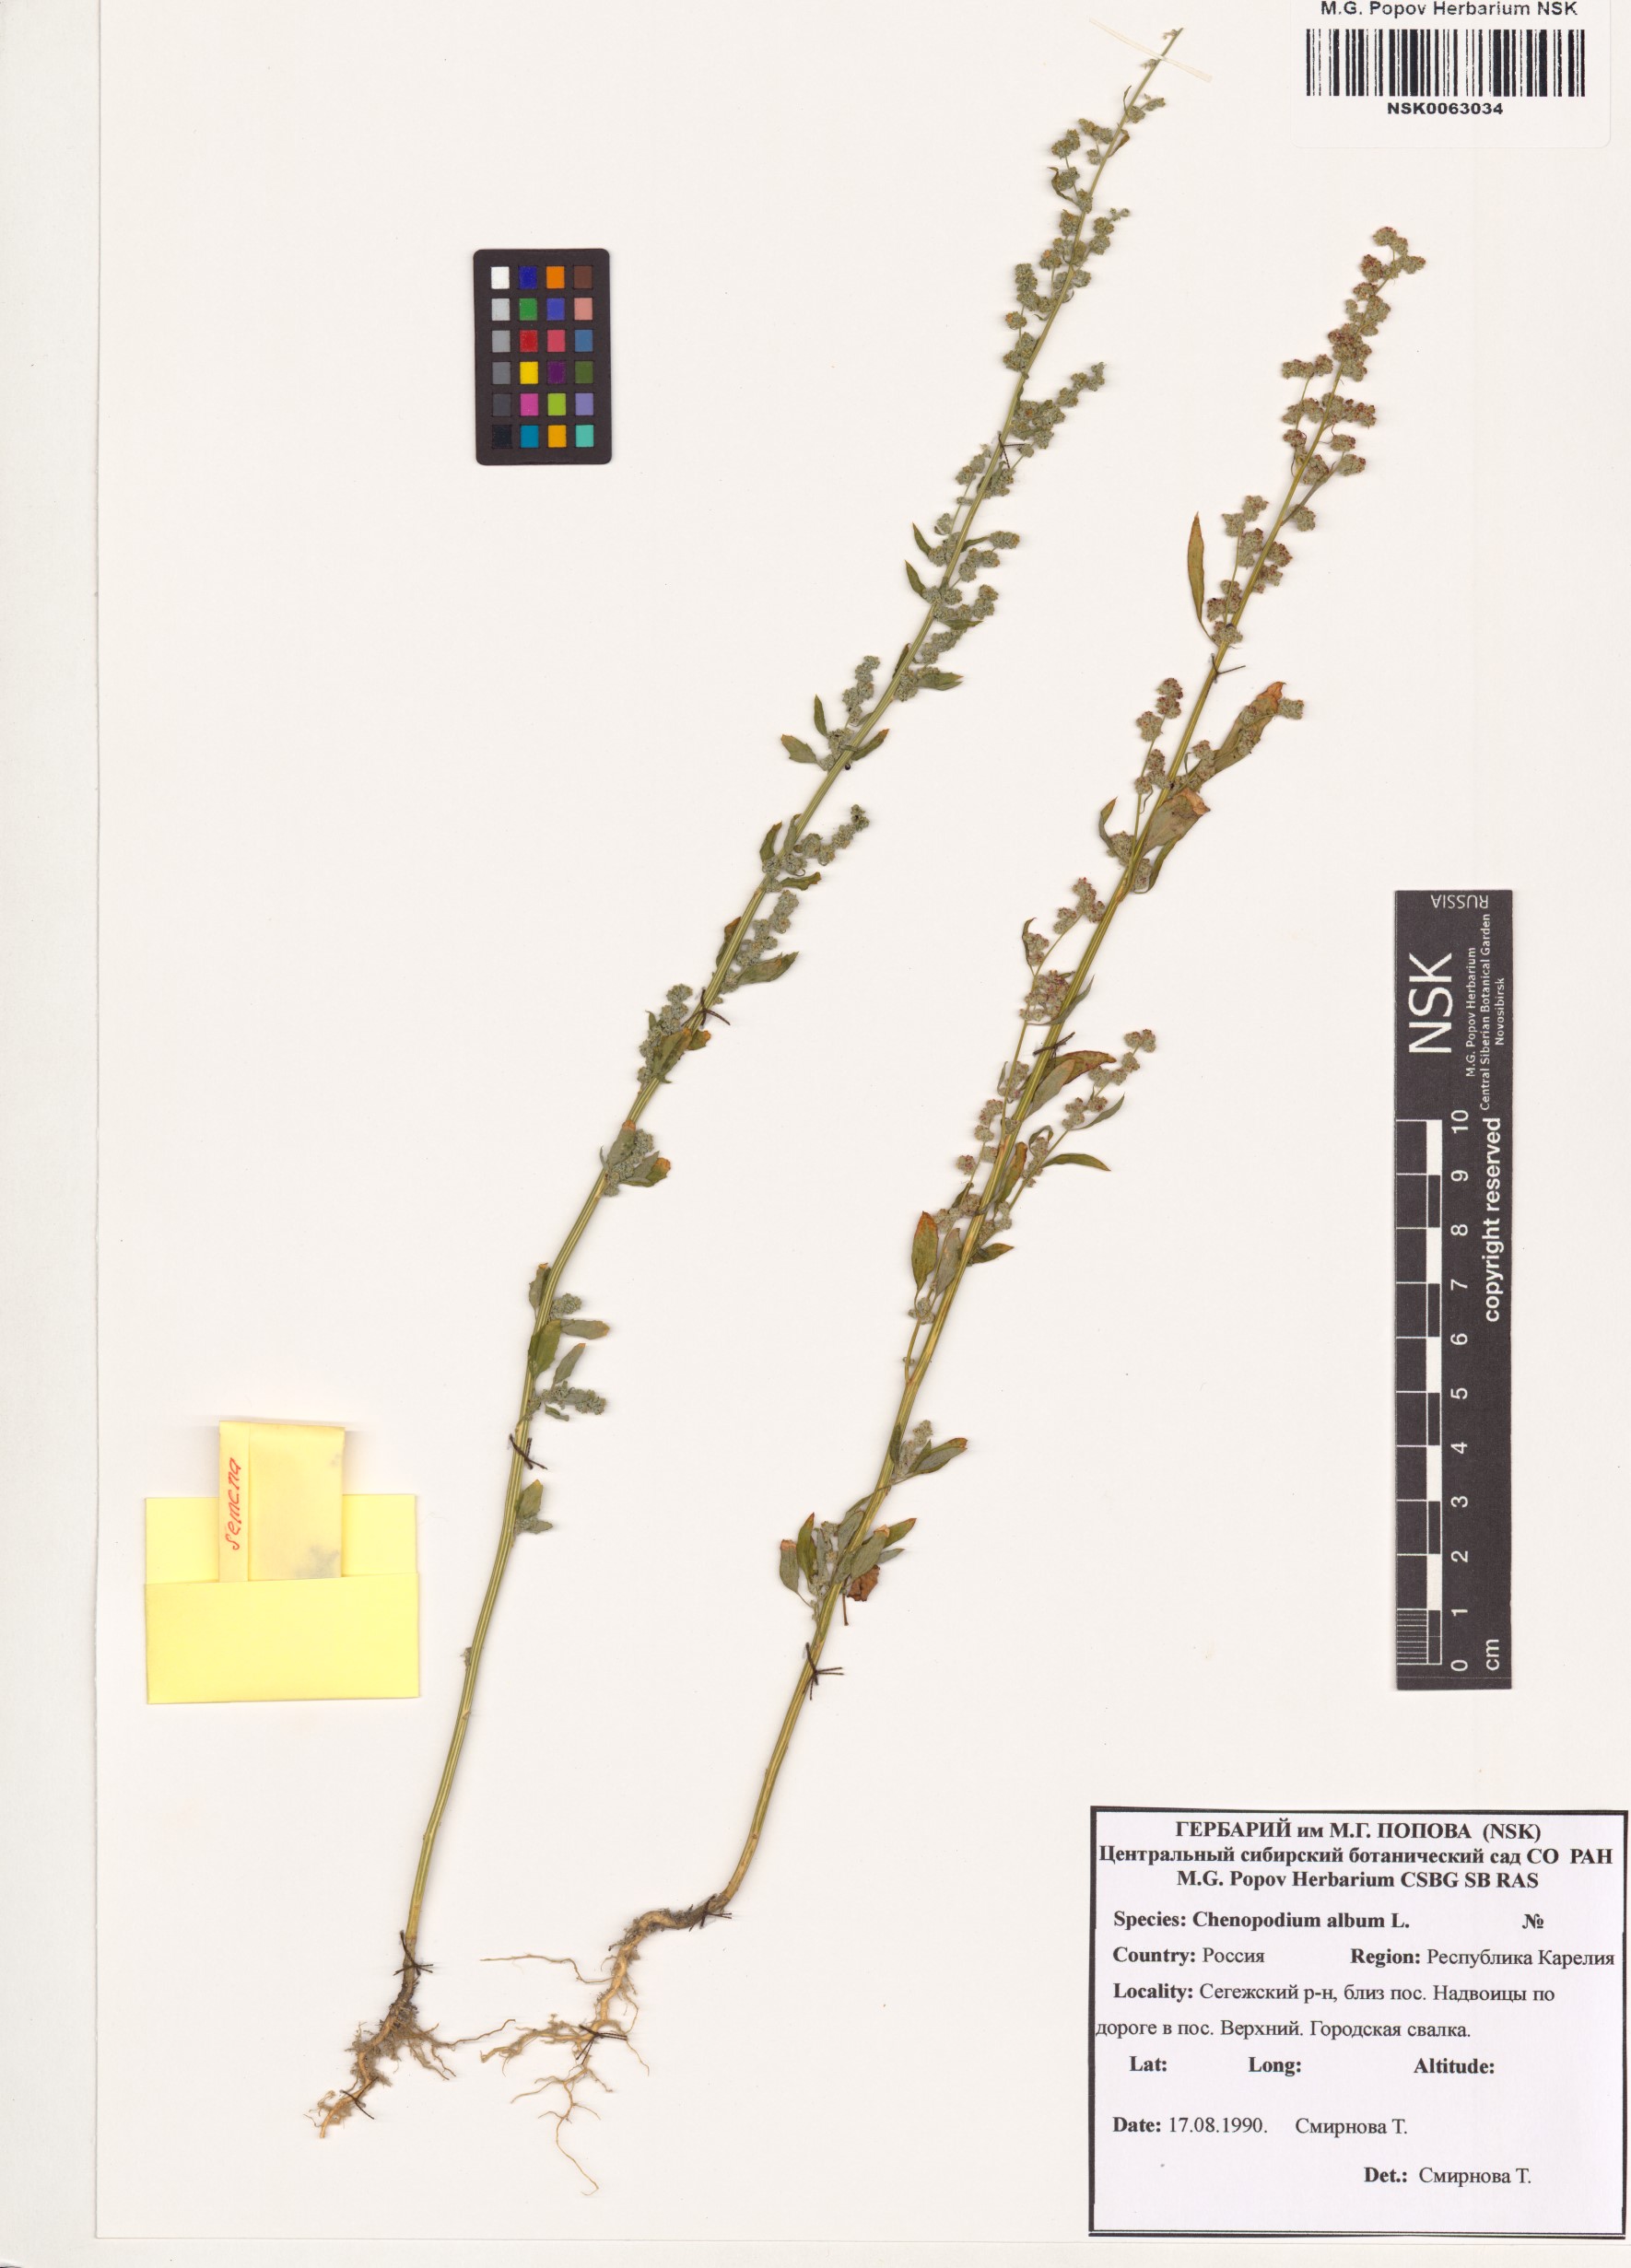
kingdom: Plantae
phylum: Tracheophyta
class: Magnoliopsida
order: Caryophyllales
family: Amaranthaceae
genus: Chenopodium
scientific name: Chenopodium album
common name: Fat-hen
